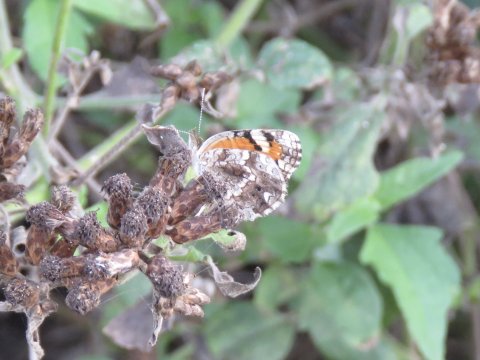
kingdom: Animalia
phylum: Arthropoda
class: Insecta
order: Lepidoptera
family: Nymphalidae
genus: Phyciodes
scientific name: Phyciodes phaon
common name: Phaon Crescent
